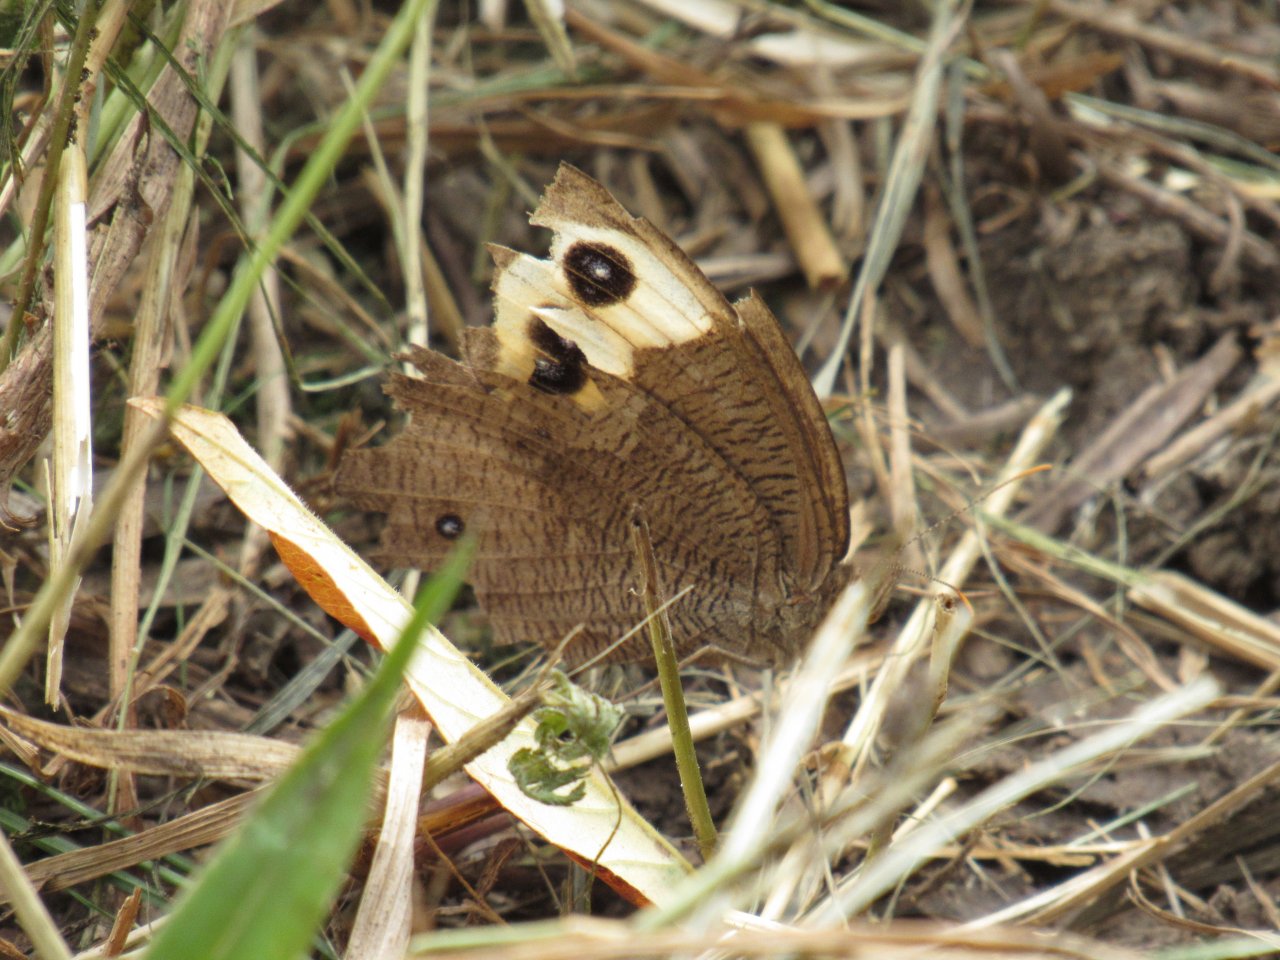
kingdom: Animalia
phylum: Arthropoda
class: Insecta
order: Lepidoptera
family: Nymphalidae
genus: Cercyonis
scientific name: Cercyonis pegala
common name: Common Wood-Nymph
